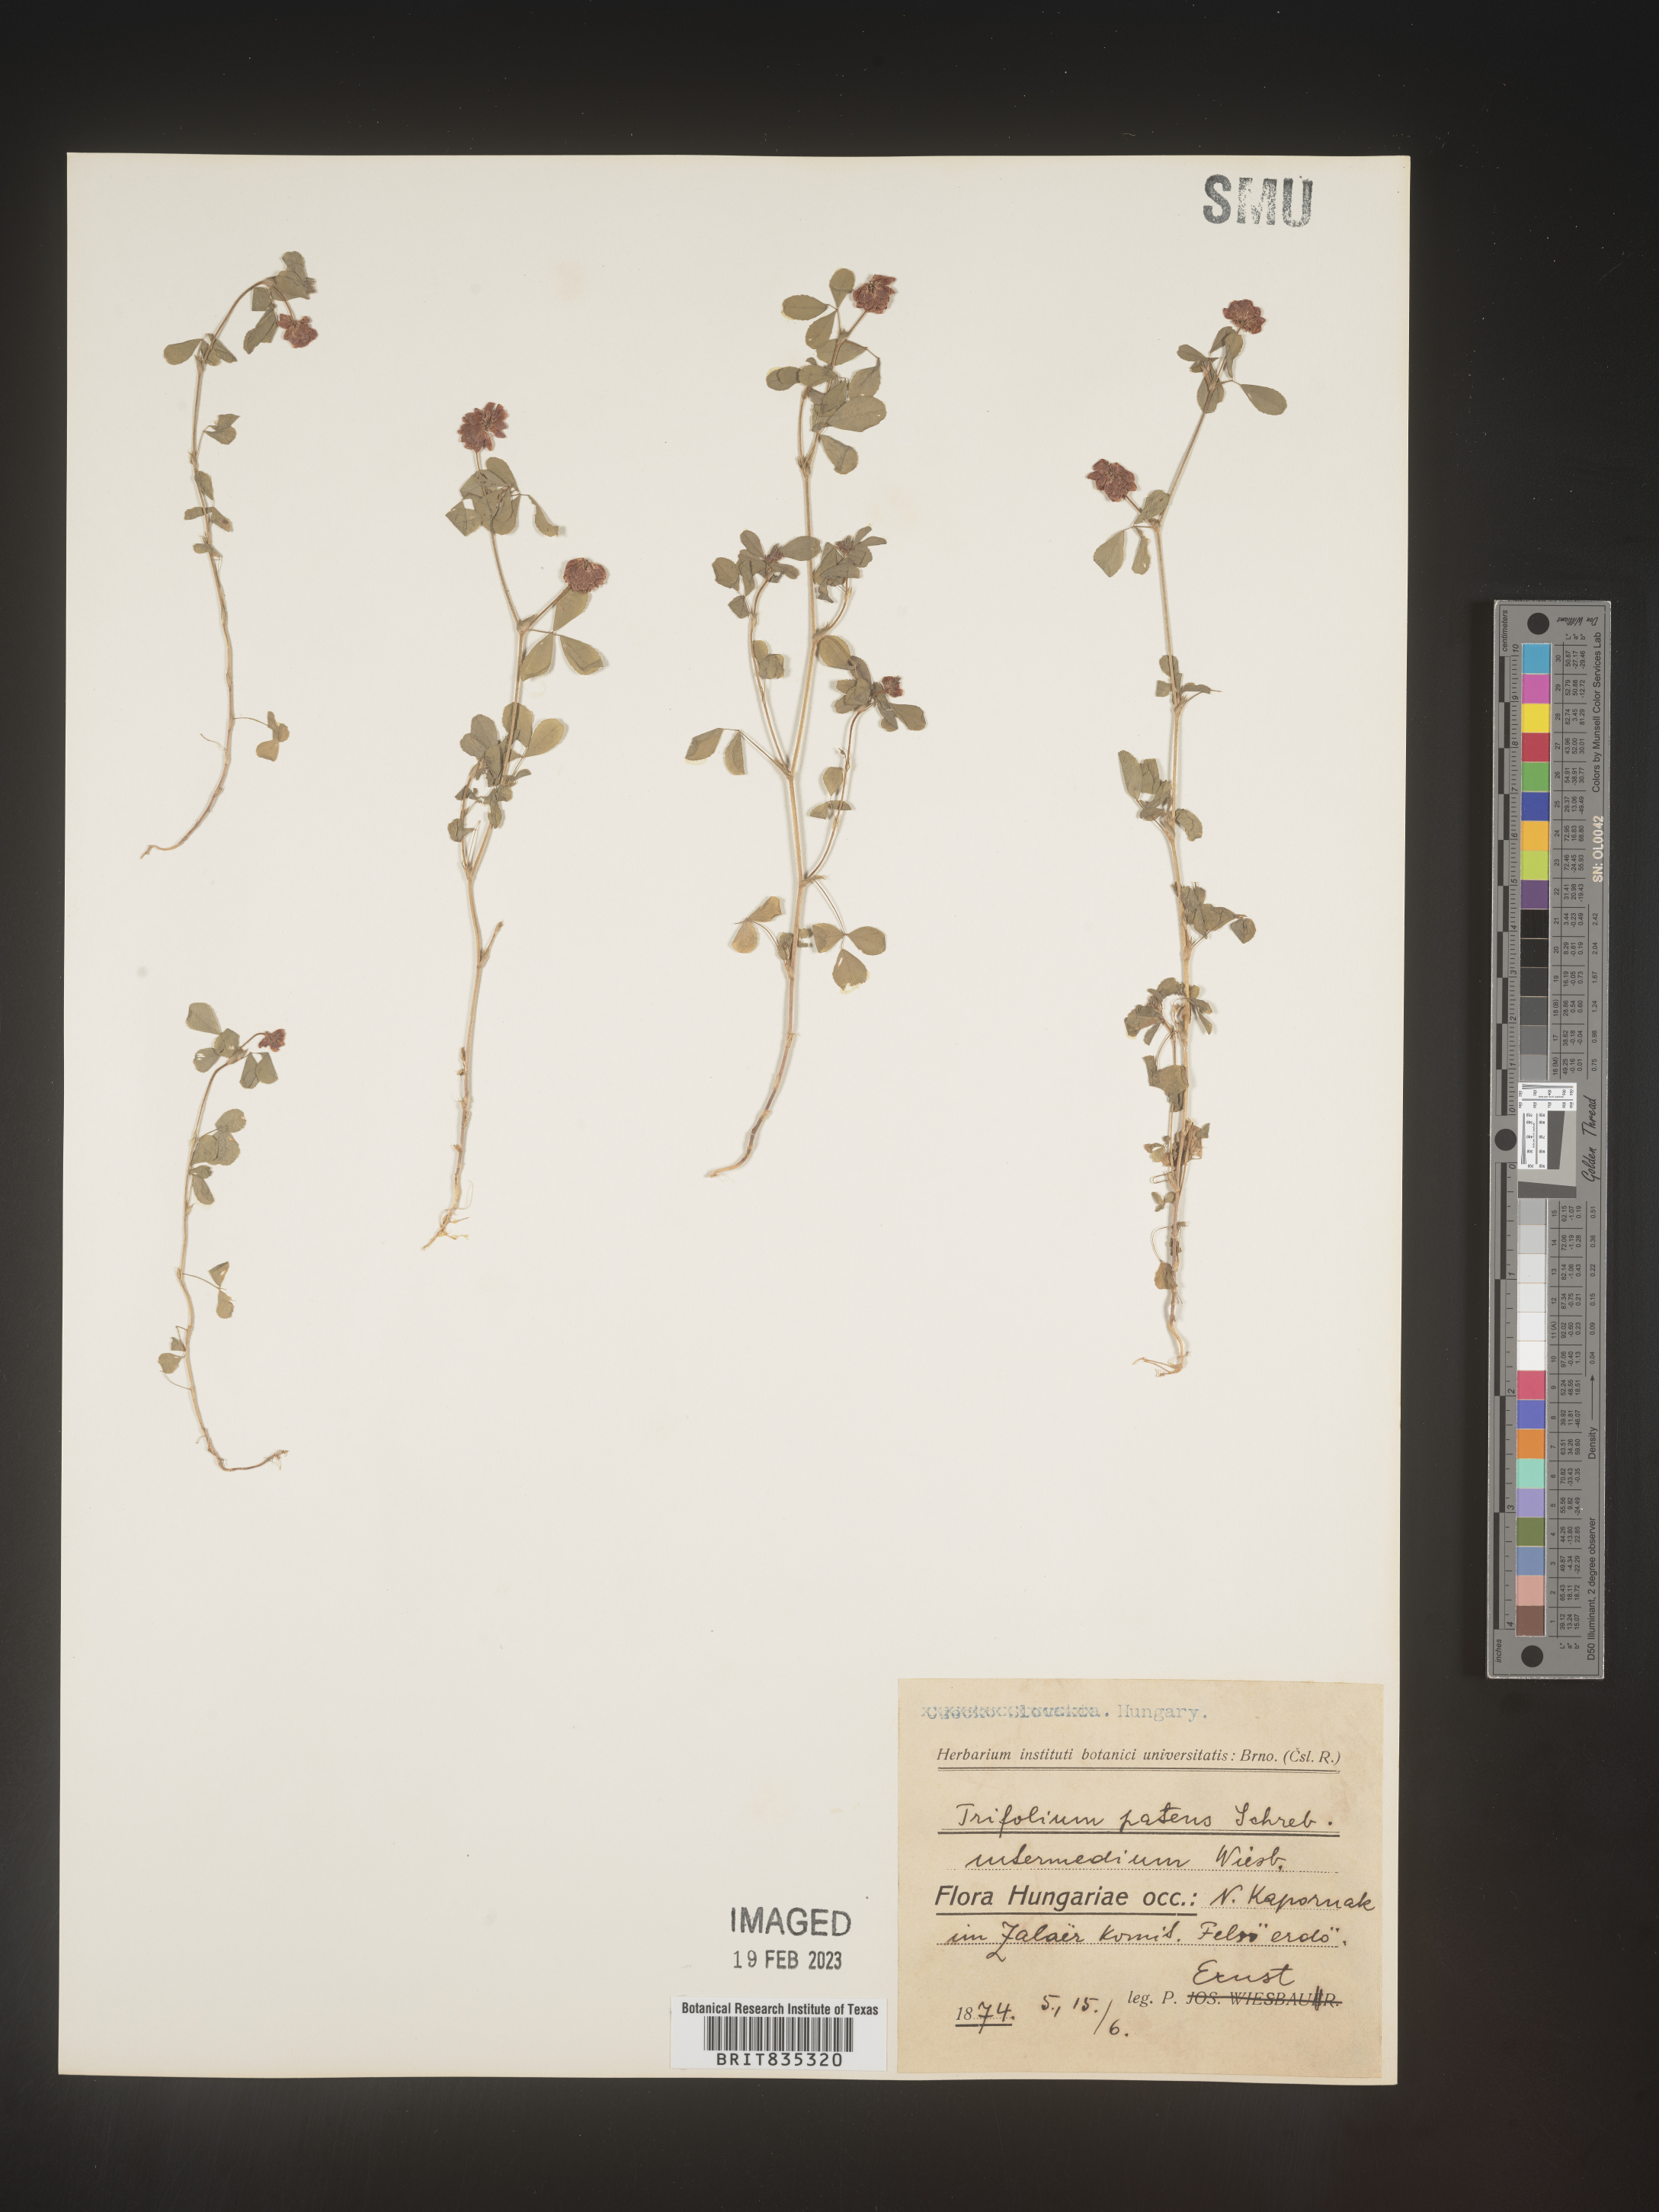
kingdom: Plantae
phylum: Tracheophyta
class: Magnoliopsida
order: Fabales
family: Fabaceae
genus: Trifolium
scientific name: Trifolium
